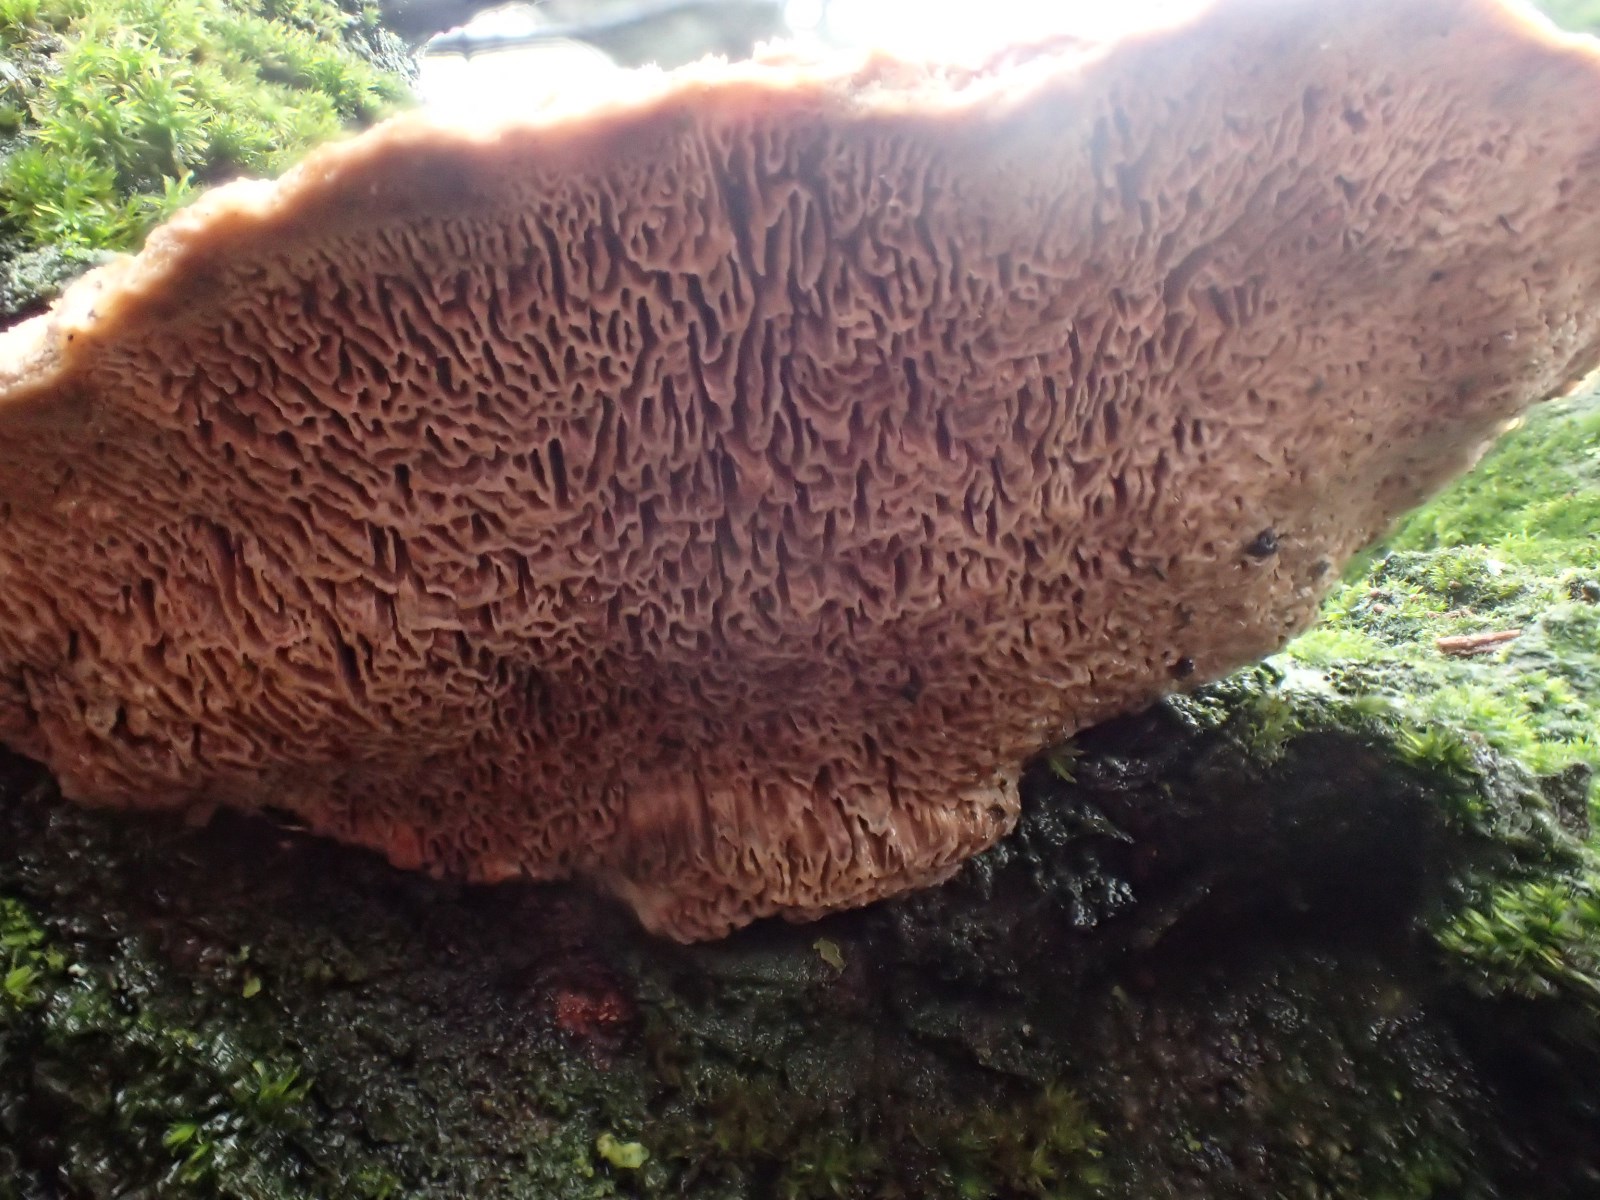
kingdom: Fungi
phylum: Basidiomycota
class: Agaricomycetes
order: Polyporales
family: Fomitopsidaceae
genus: Daedalea
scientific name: Daedalea quercina
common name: ege-labyrintsvamp
